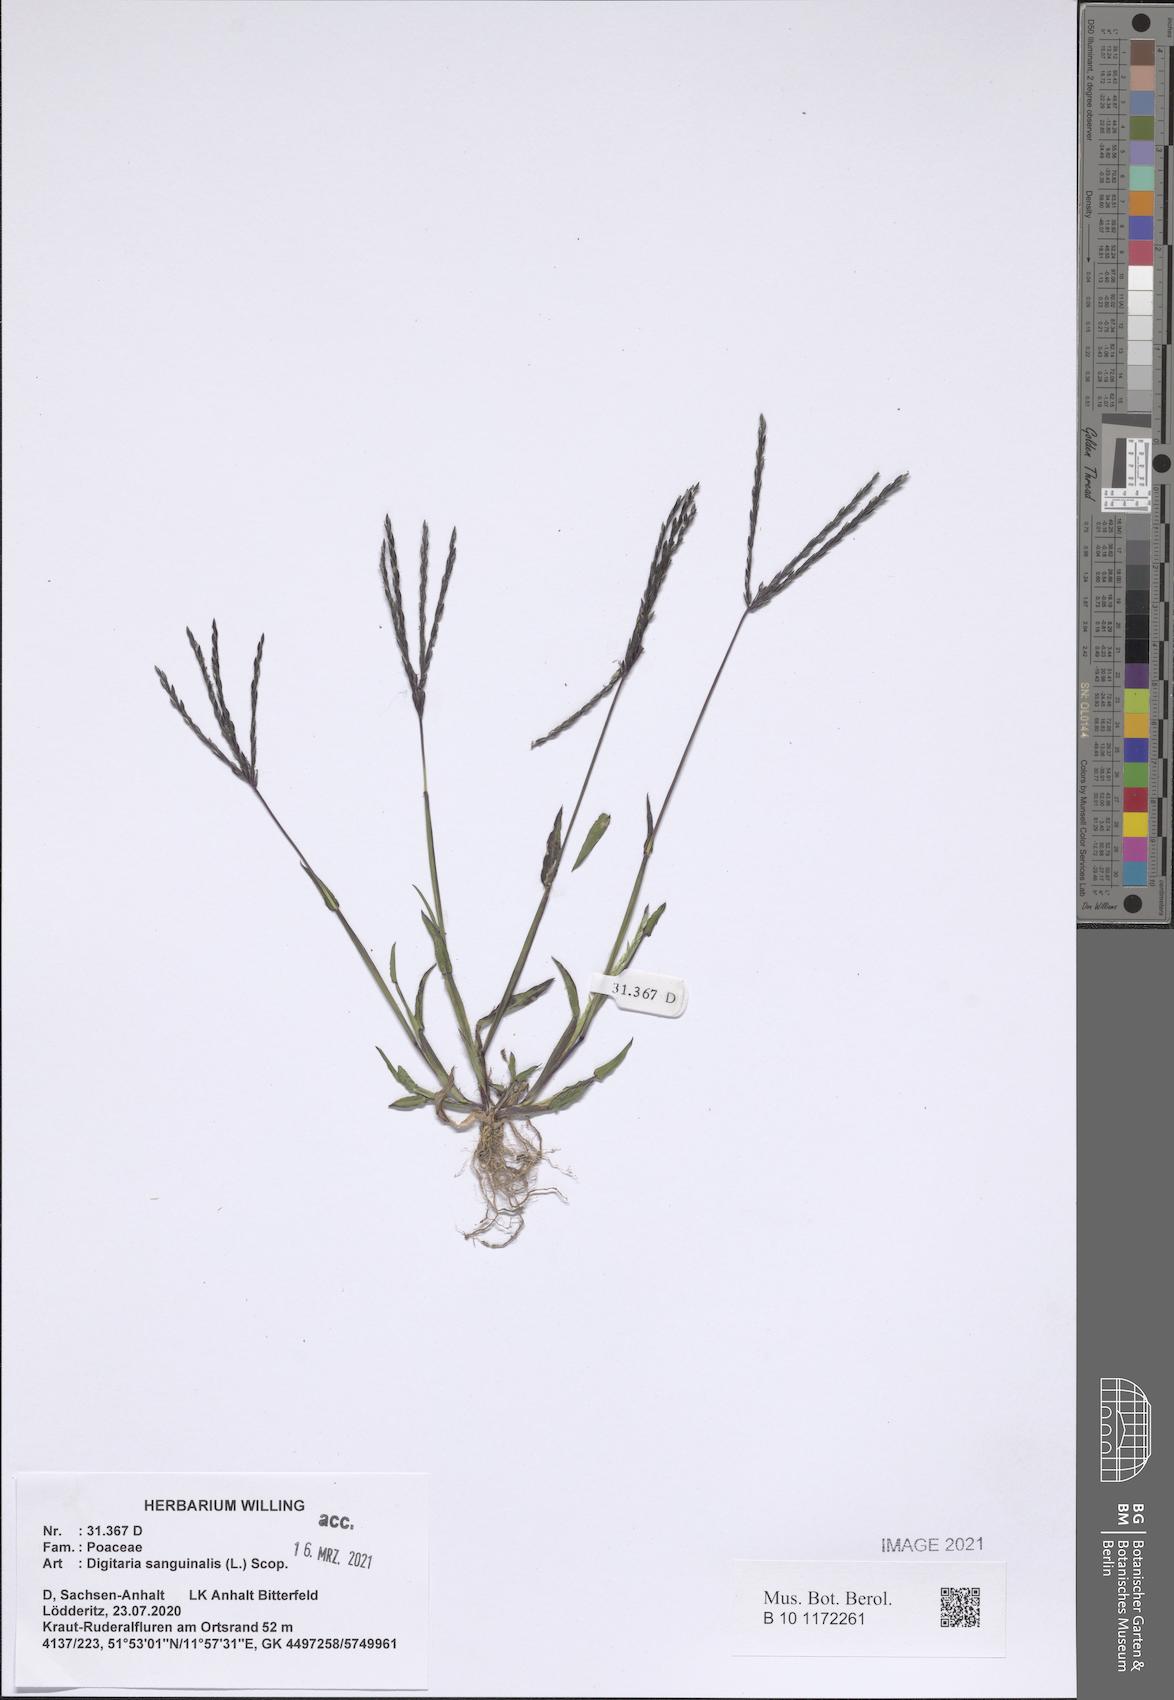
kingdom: Plantae
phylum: Tracheophyta
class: Liliopsida
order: Poales
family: Poaceae
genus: Digitaria
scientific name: Digitaria sanguinalis
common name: Hairy crabgrass
